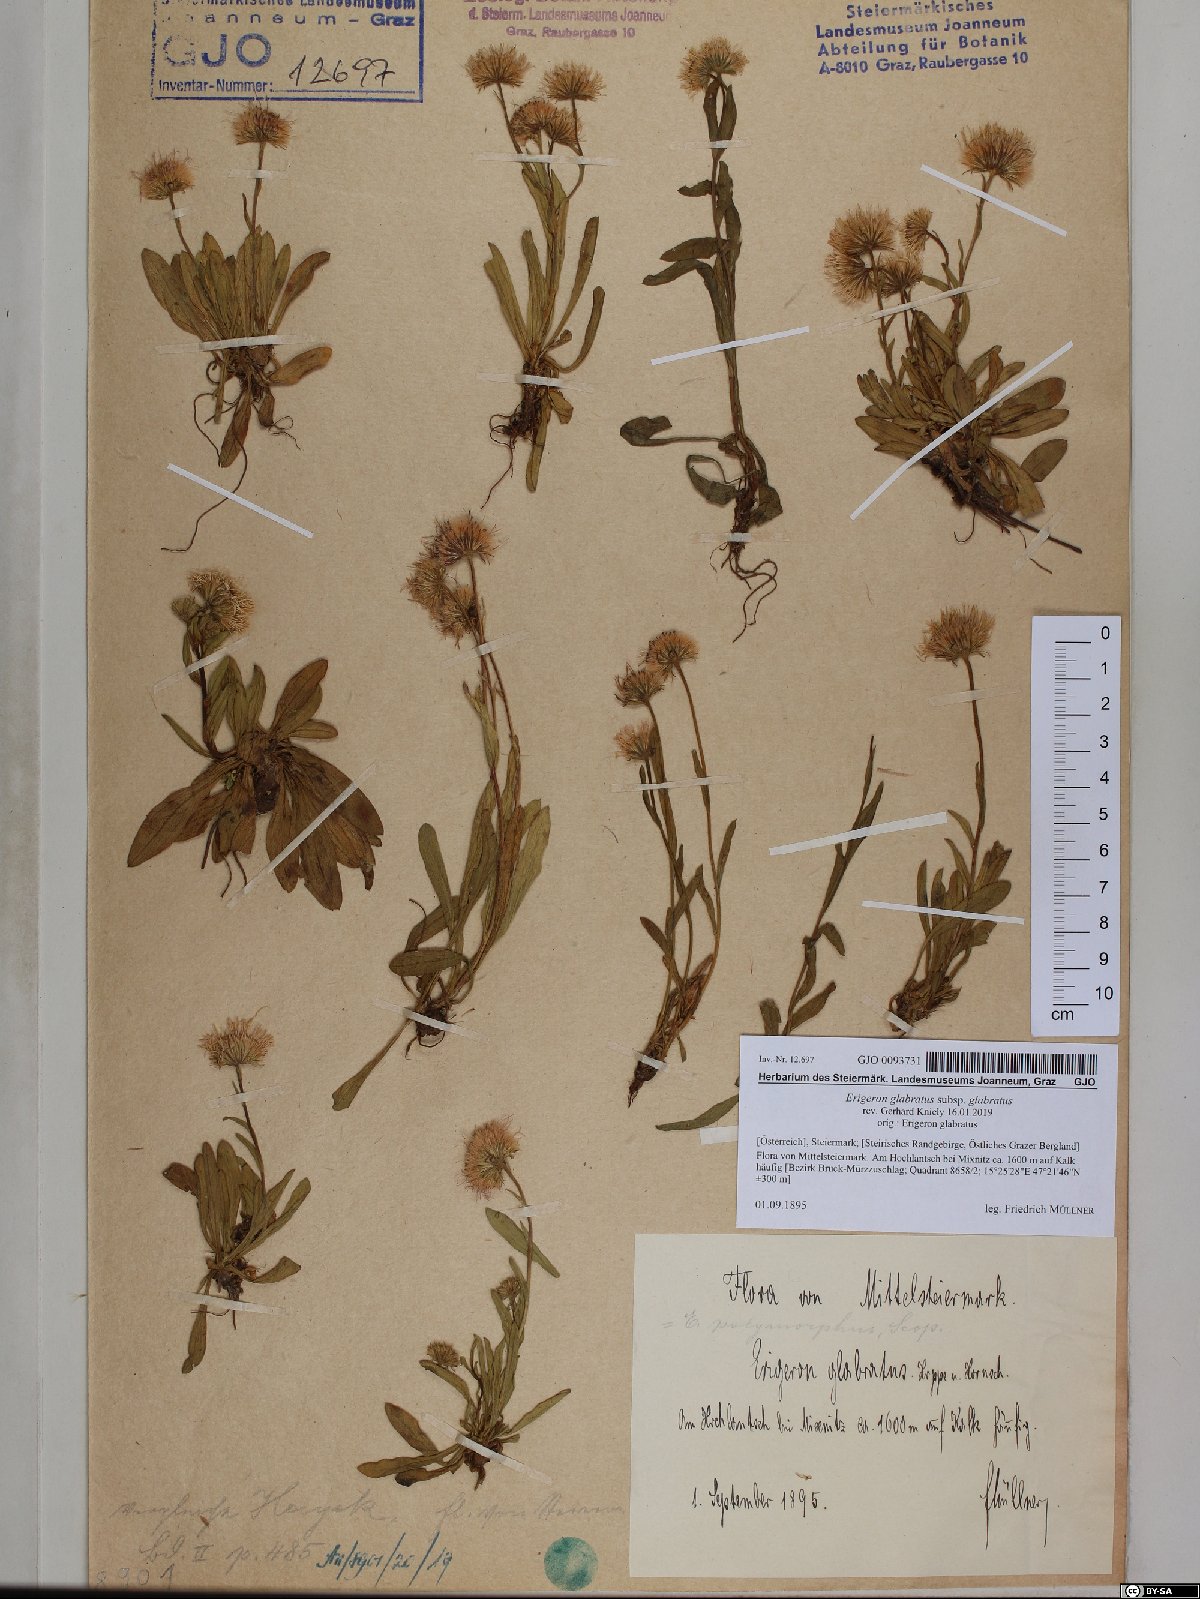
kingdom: Plantae
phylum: Tracheophyta
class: Magnoliopsida
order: Asterales
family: Asteraceae
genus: Erigeron
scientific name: Erigeron glabratus
